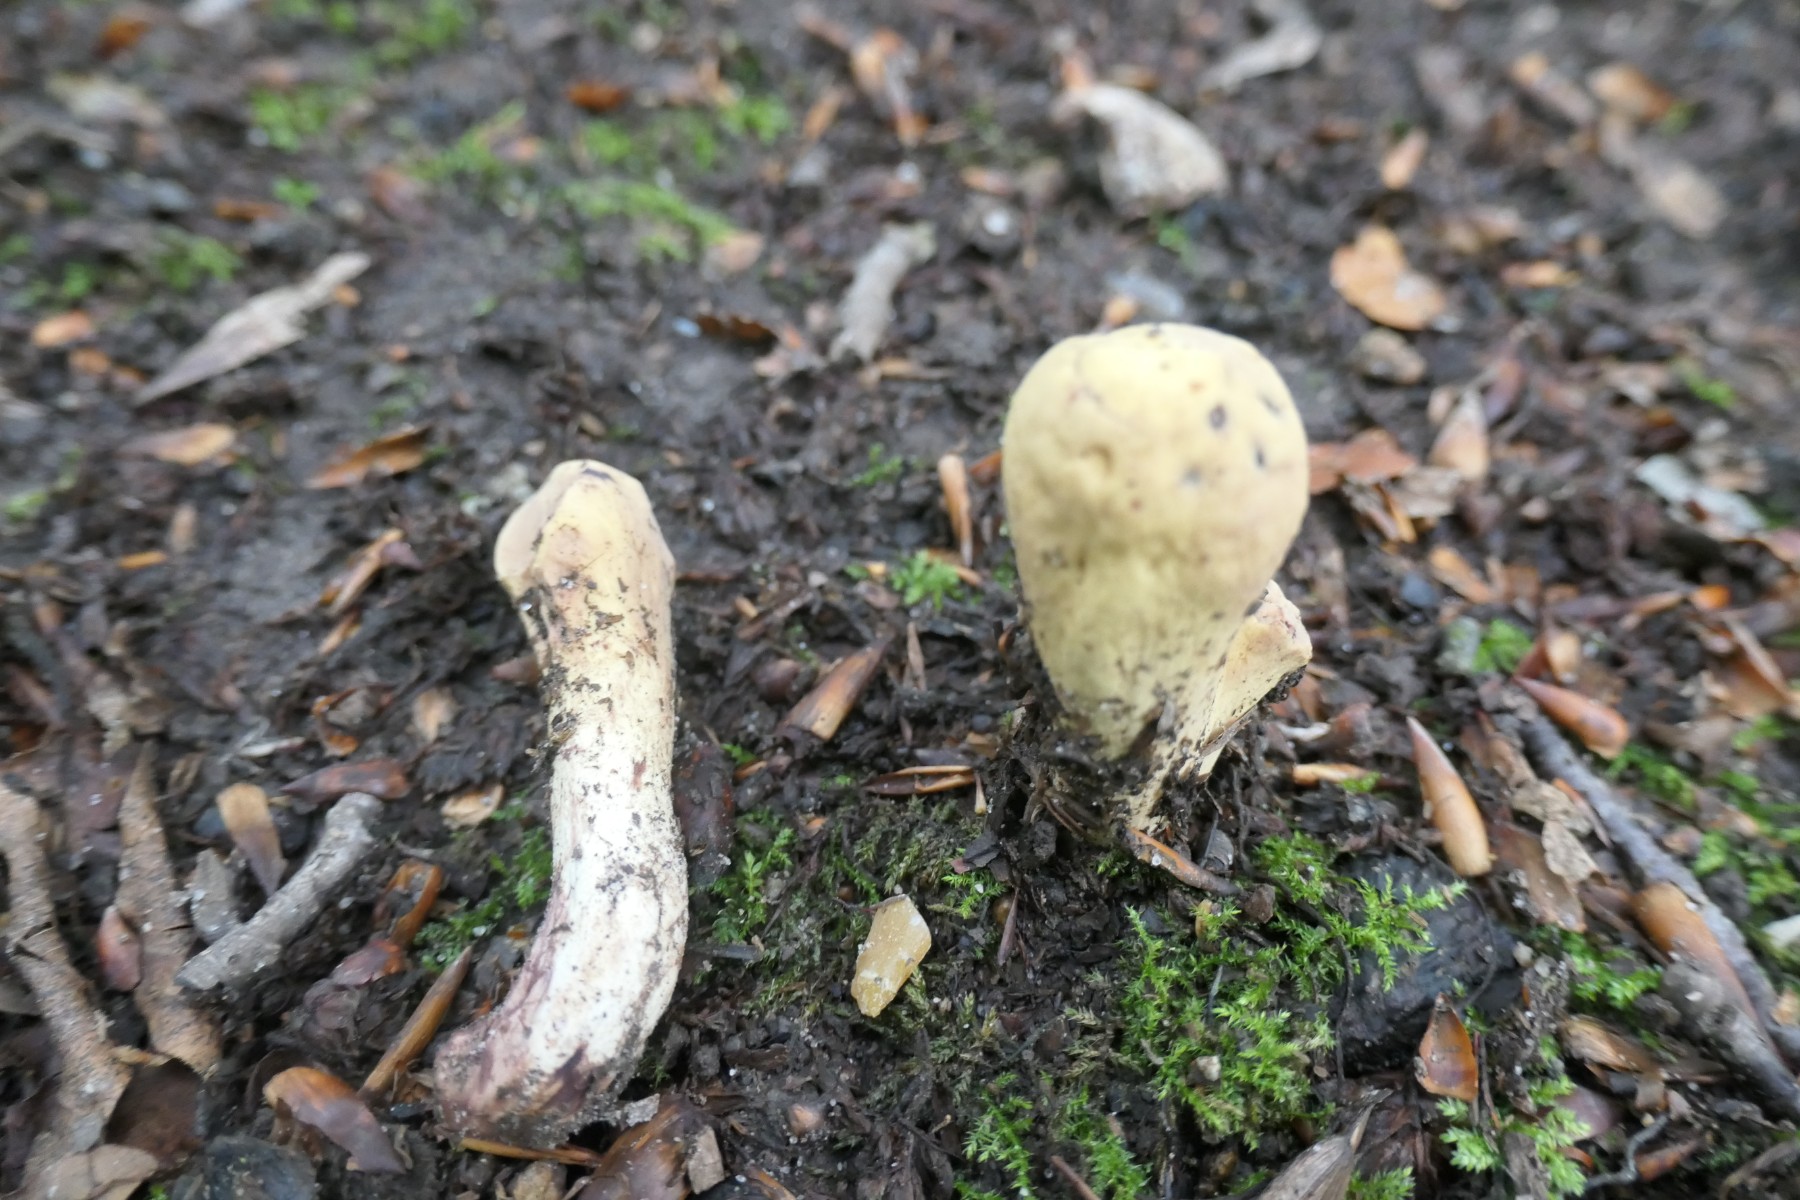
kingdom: Fungi
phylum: Basidiomycota
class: Agaricomycetes
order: Gomphales
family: Clavariadelphaceae
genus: Clavariadelphus
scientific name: Clavariadelphus pistillaris
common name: herkules-kæmpekølle
